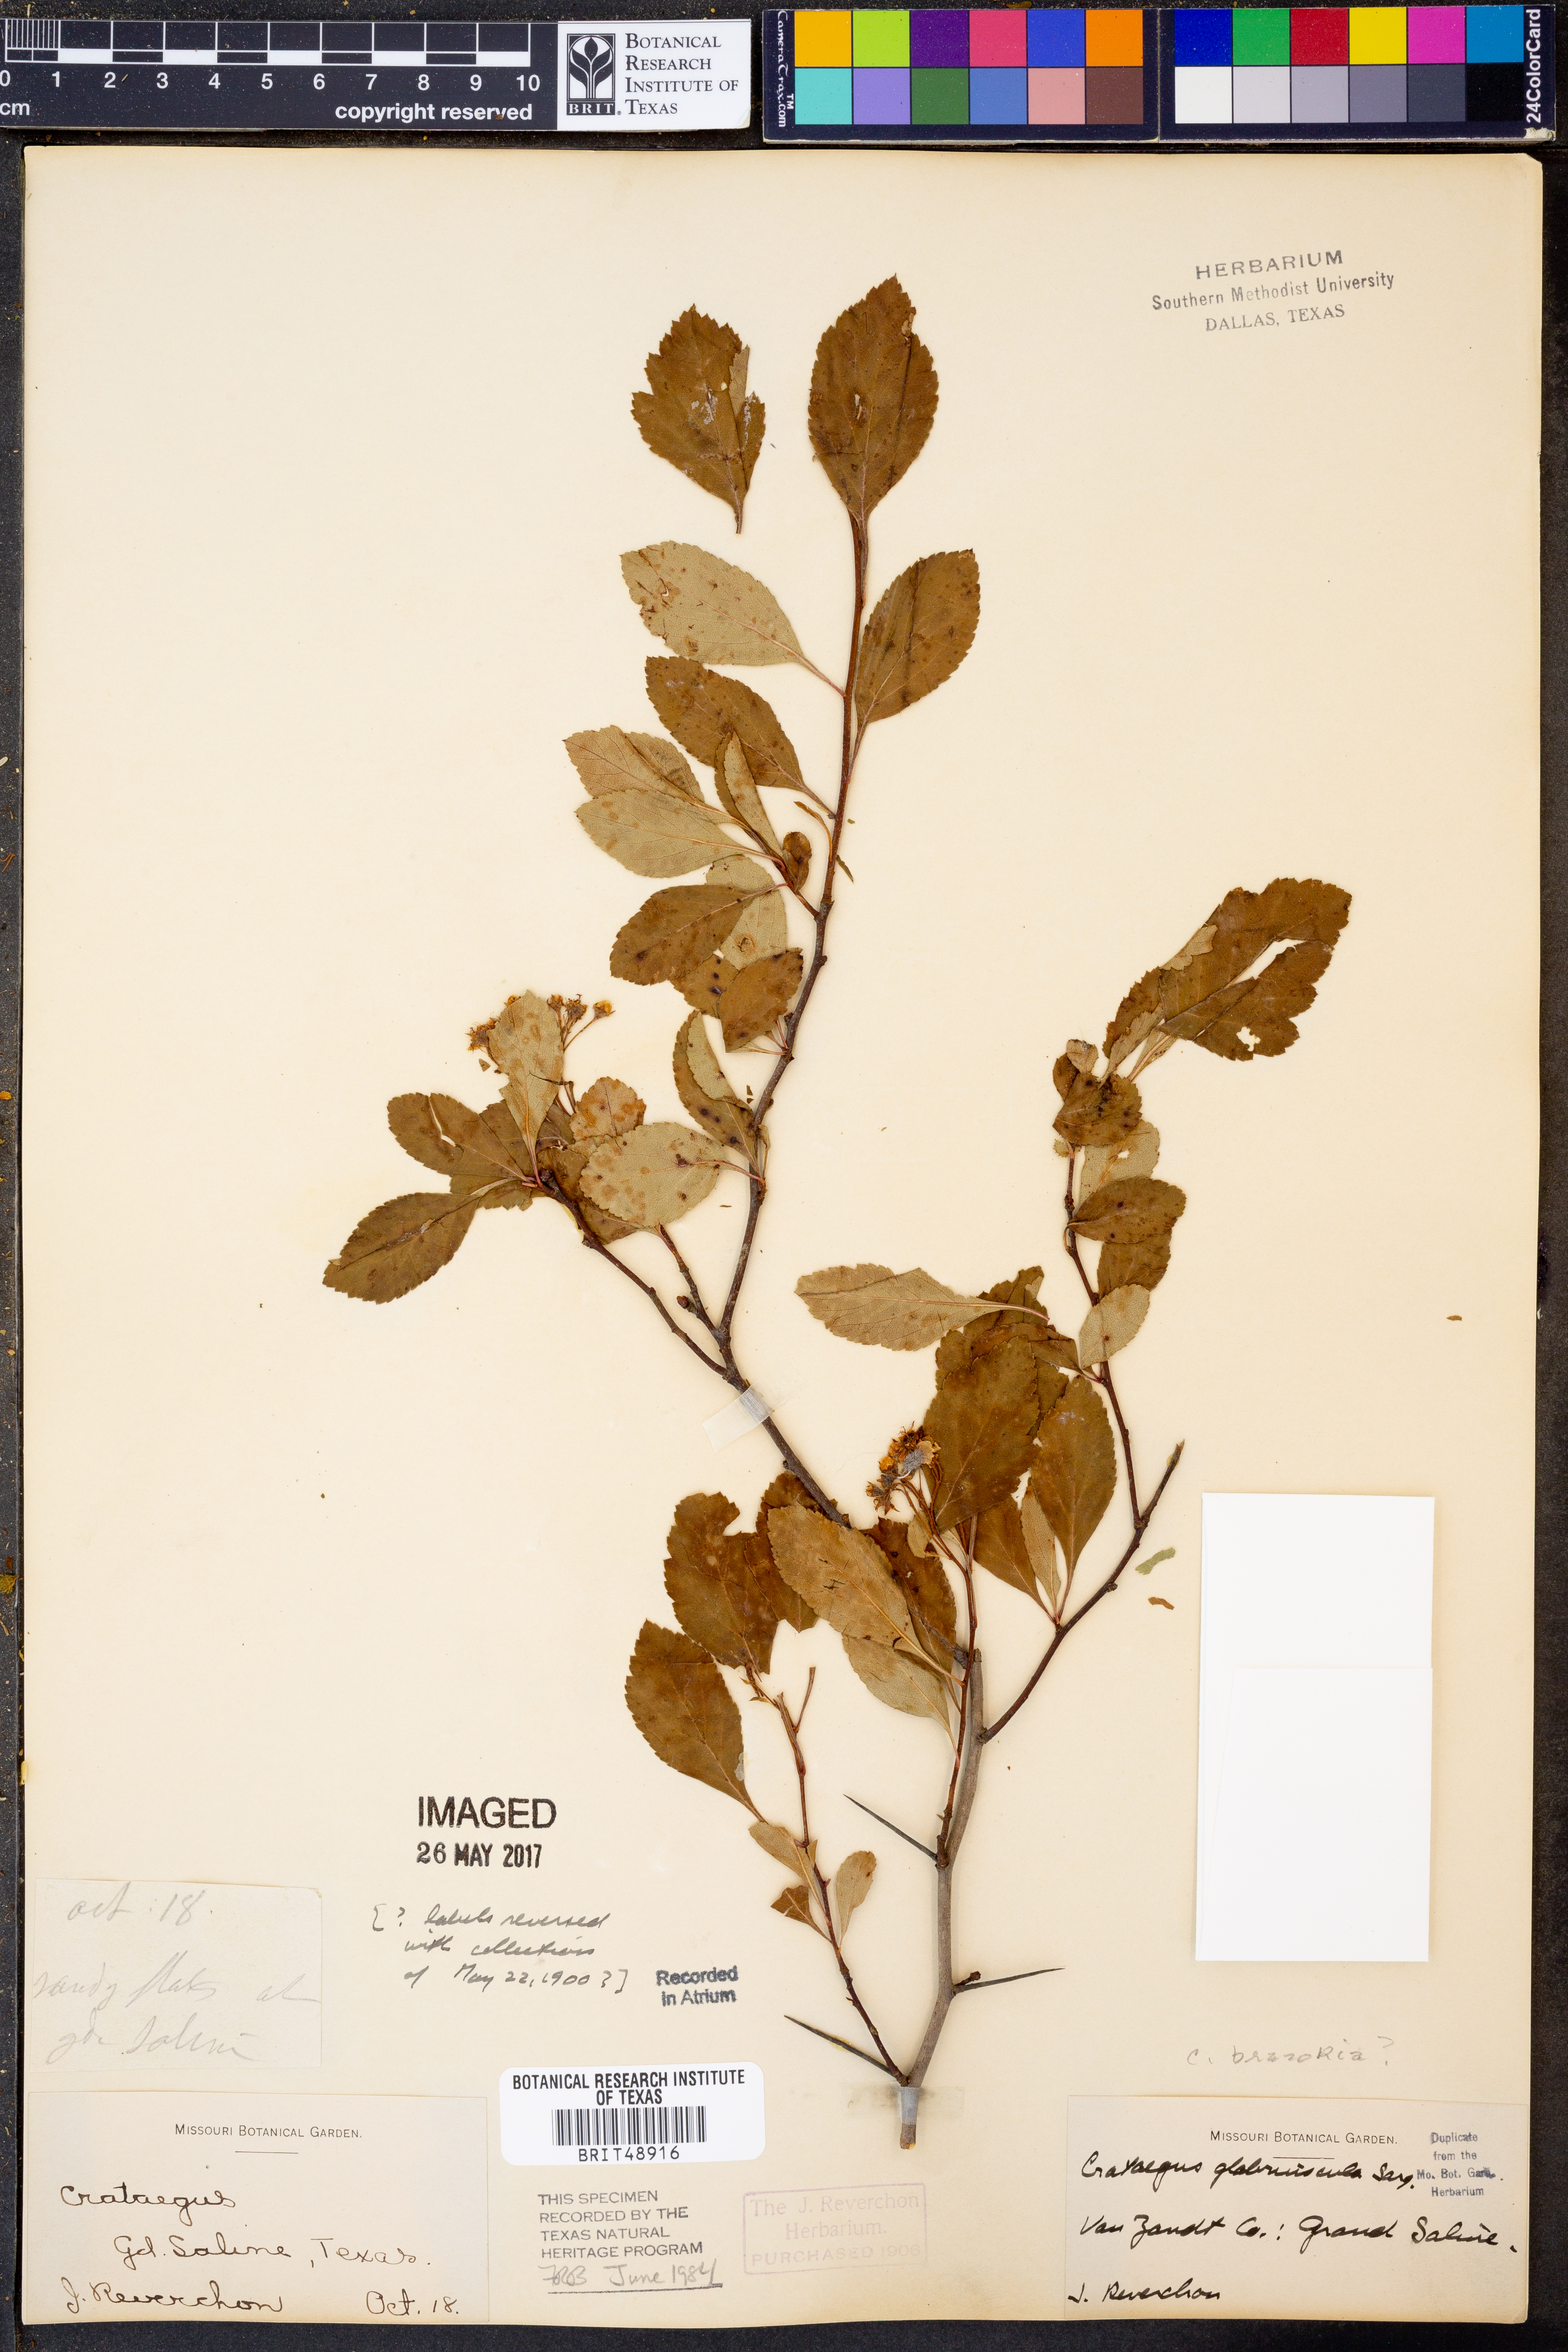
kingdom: Plantae
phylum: Tracheophyta
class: Magnoliopsida
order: Rosales
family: Rosaceae
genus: Crataegus
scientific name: Crataegus viridis
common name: Southernthorn
